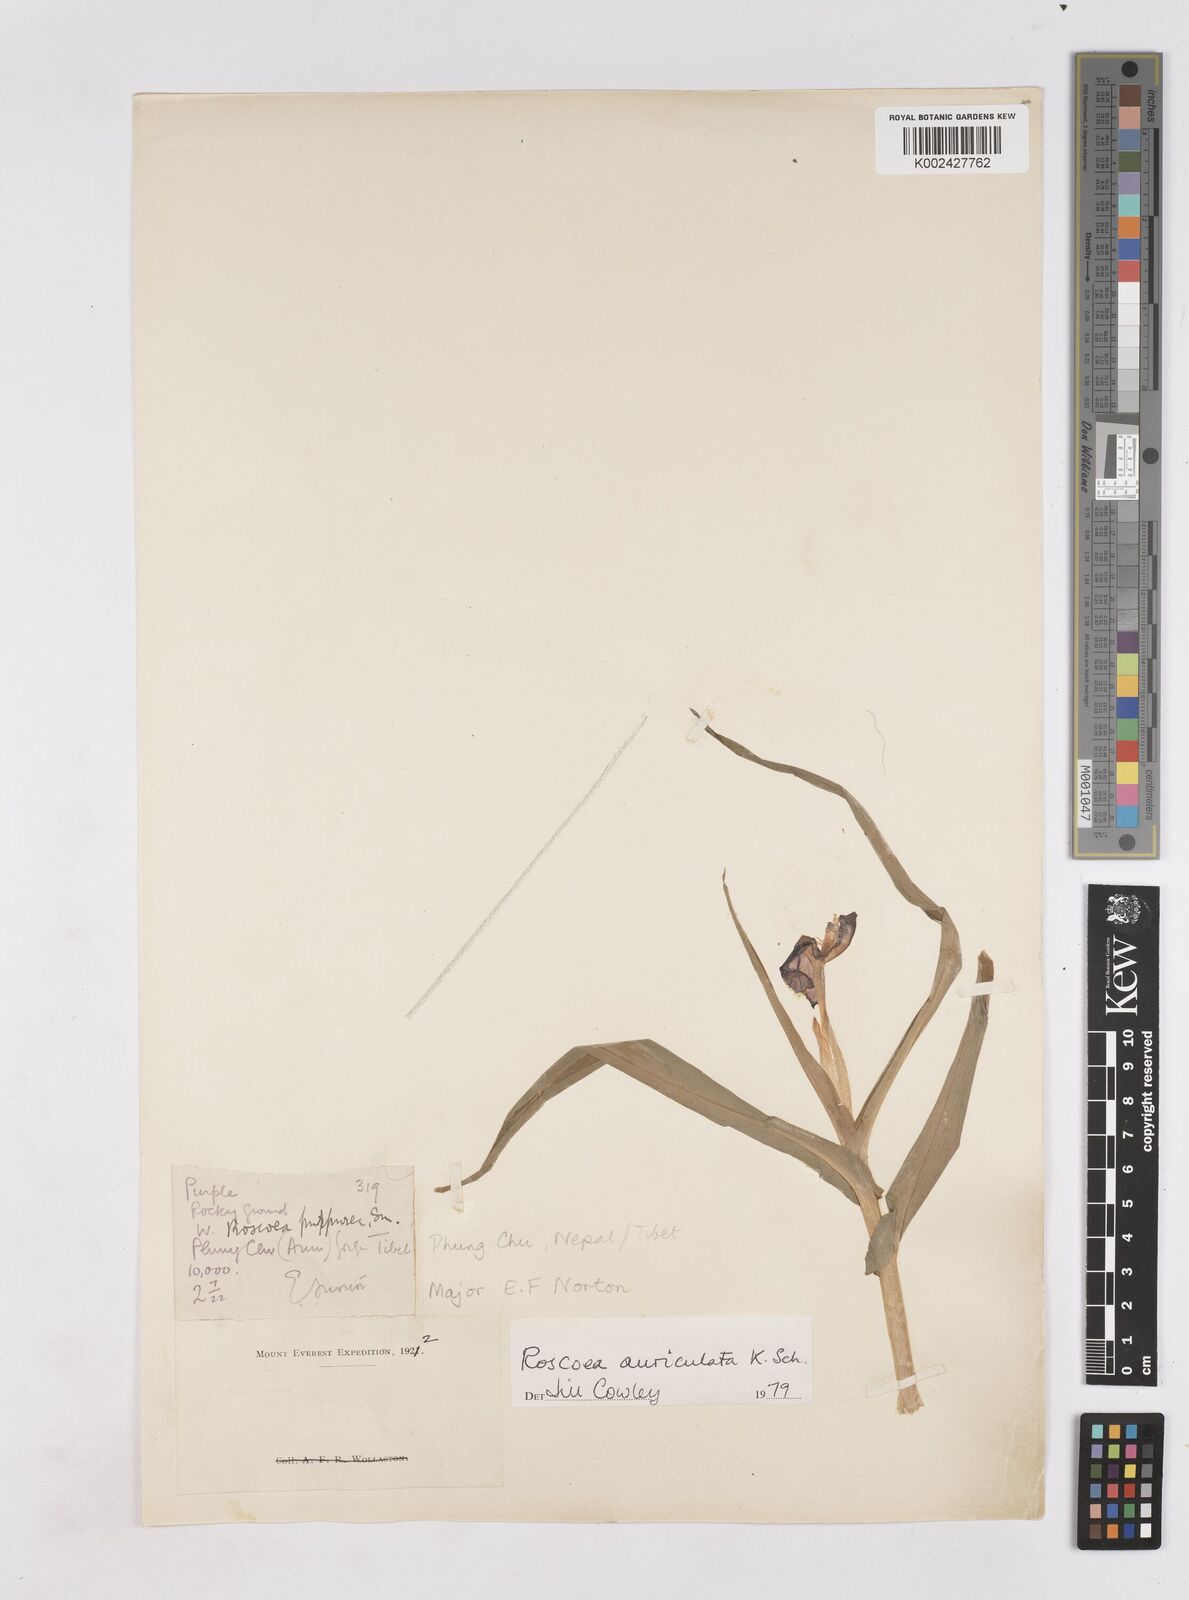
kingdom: Plantae
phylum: Tracheophyta
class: Liliopsida
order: Zingiberales
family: Zingiberaceae
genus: Roscoea
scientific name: Roscoea auriculata
